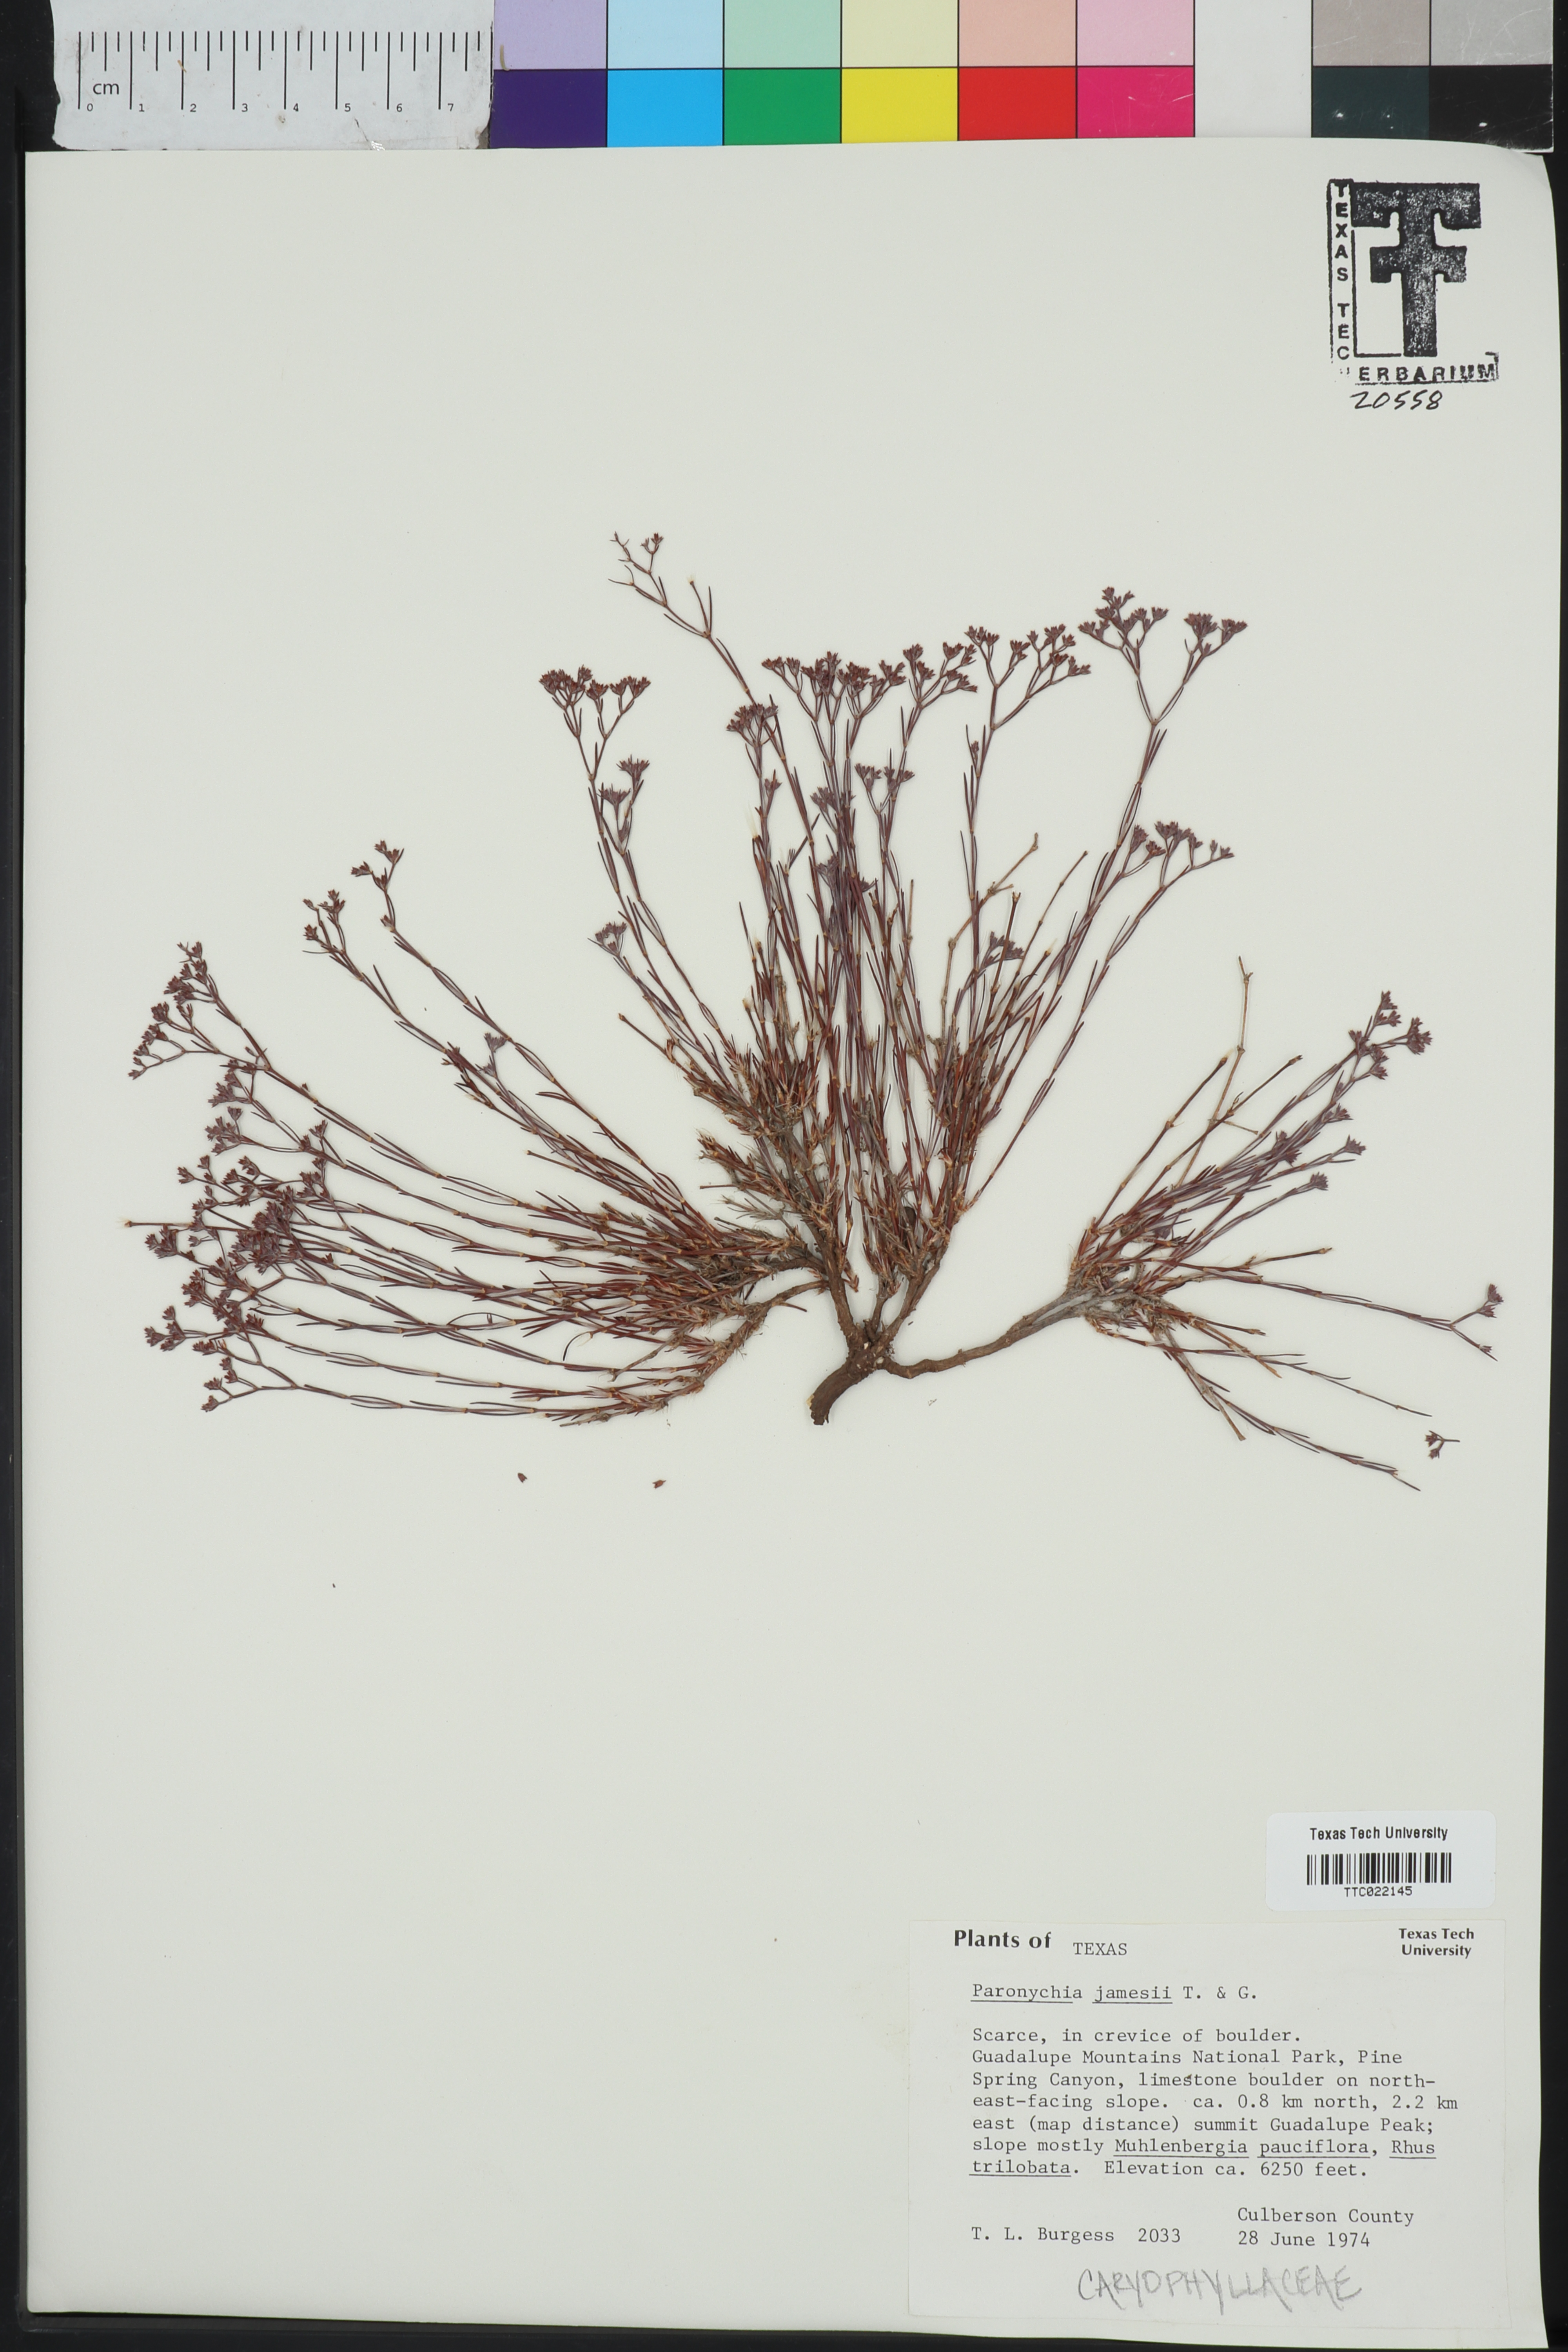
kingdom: Plantae
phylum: Tracheophyta
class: Magnoliopsida
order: Caryophyllales
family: Caryophyllaceae
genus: Paronychia
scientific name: Paronychia jamesii
